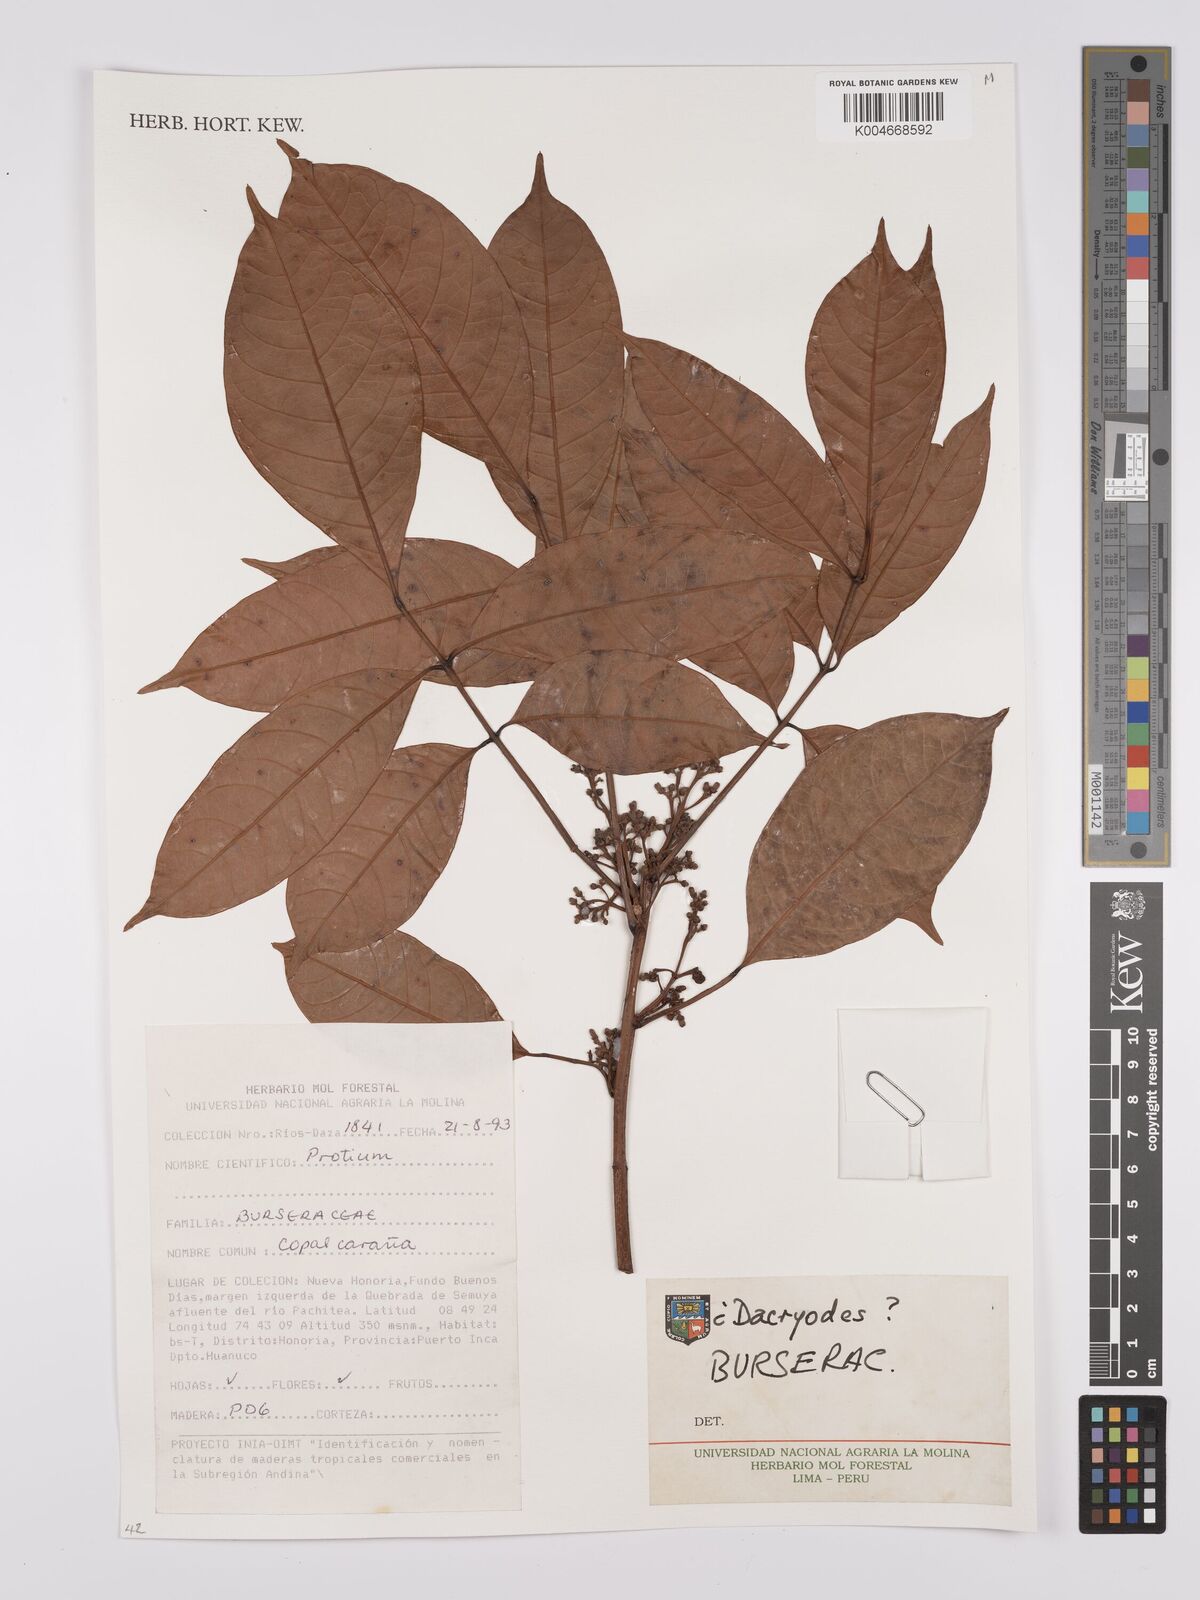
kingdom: Plantae
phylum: Tracheophyta
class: Magnoliopsida
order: Sapindales
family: Burseraceae
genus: Dacryodes
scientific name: Dacryodes
